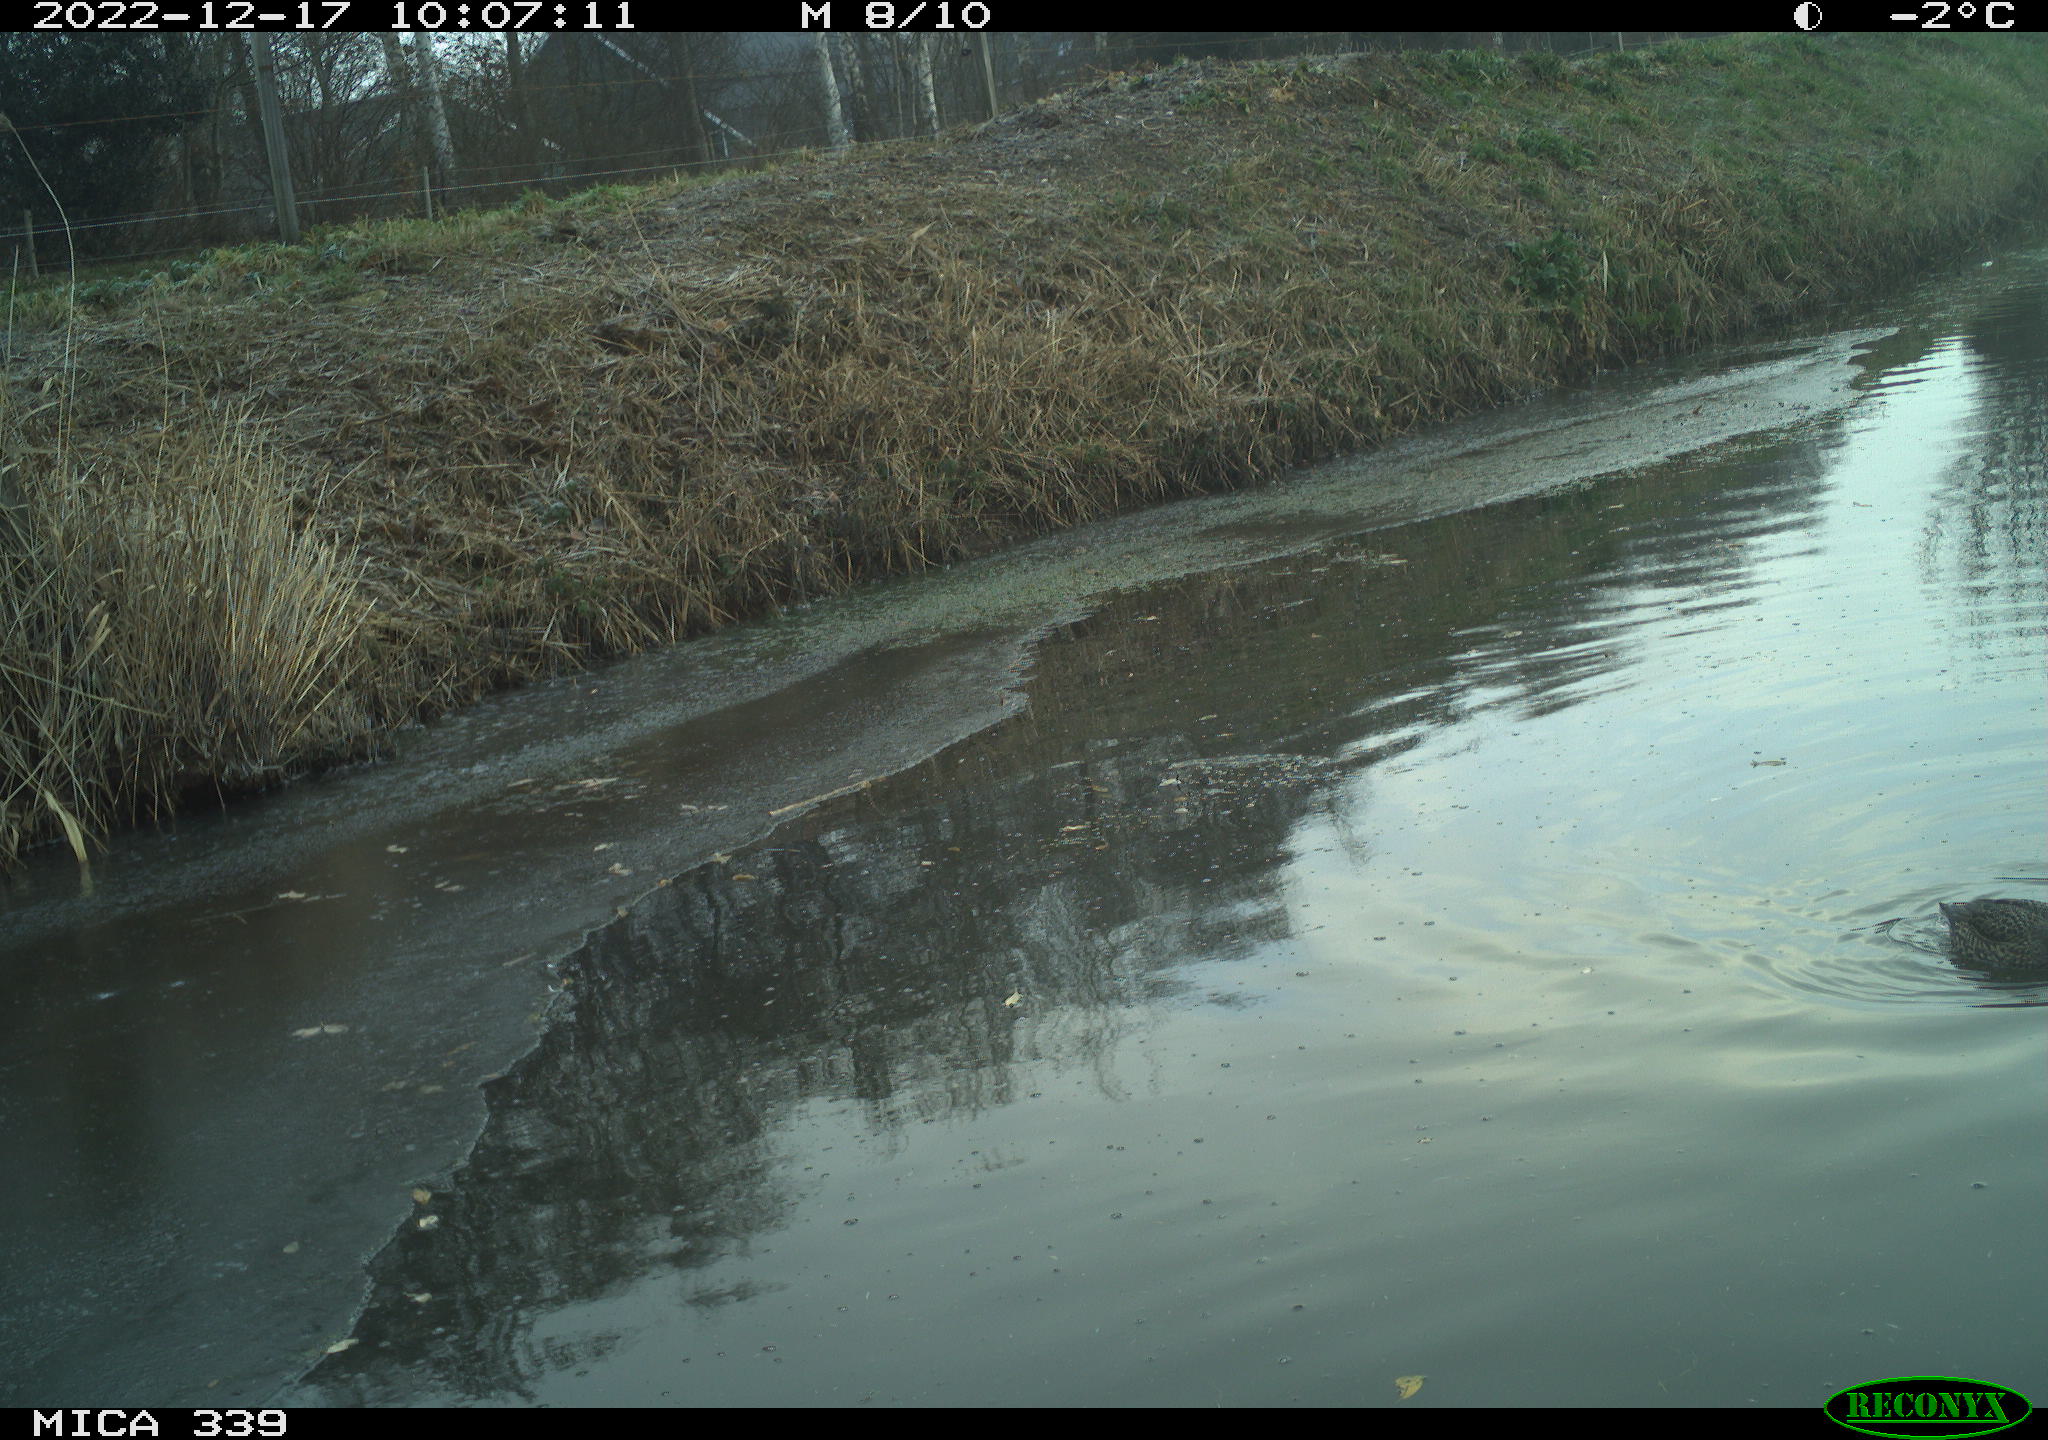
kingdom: Animalia
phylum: Chordata
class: Aves
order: Anseriformes
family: Anatidae
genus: Anas
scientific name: Anas
